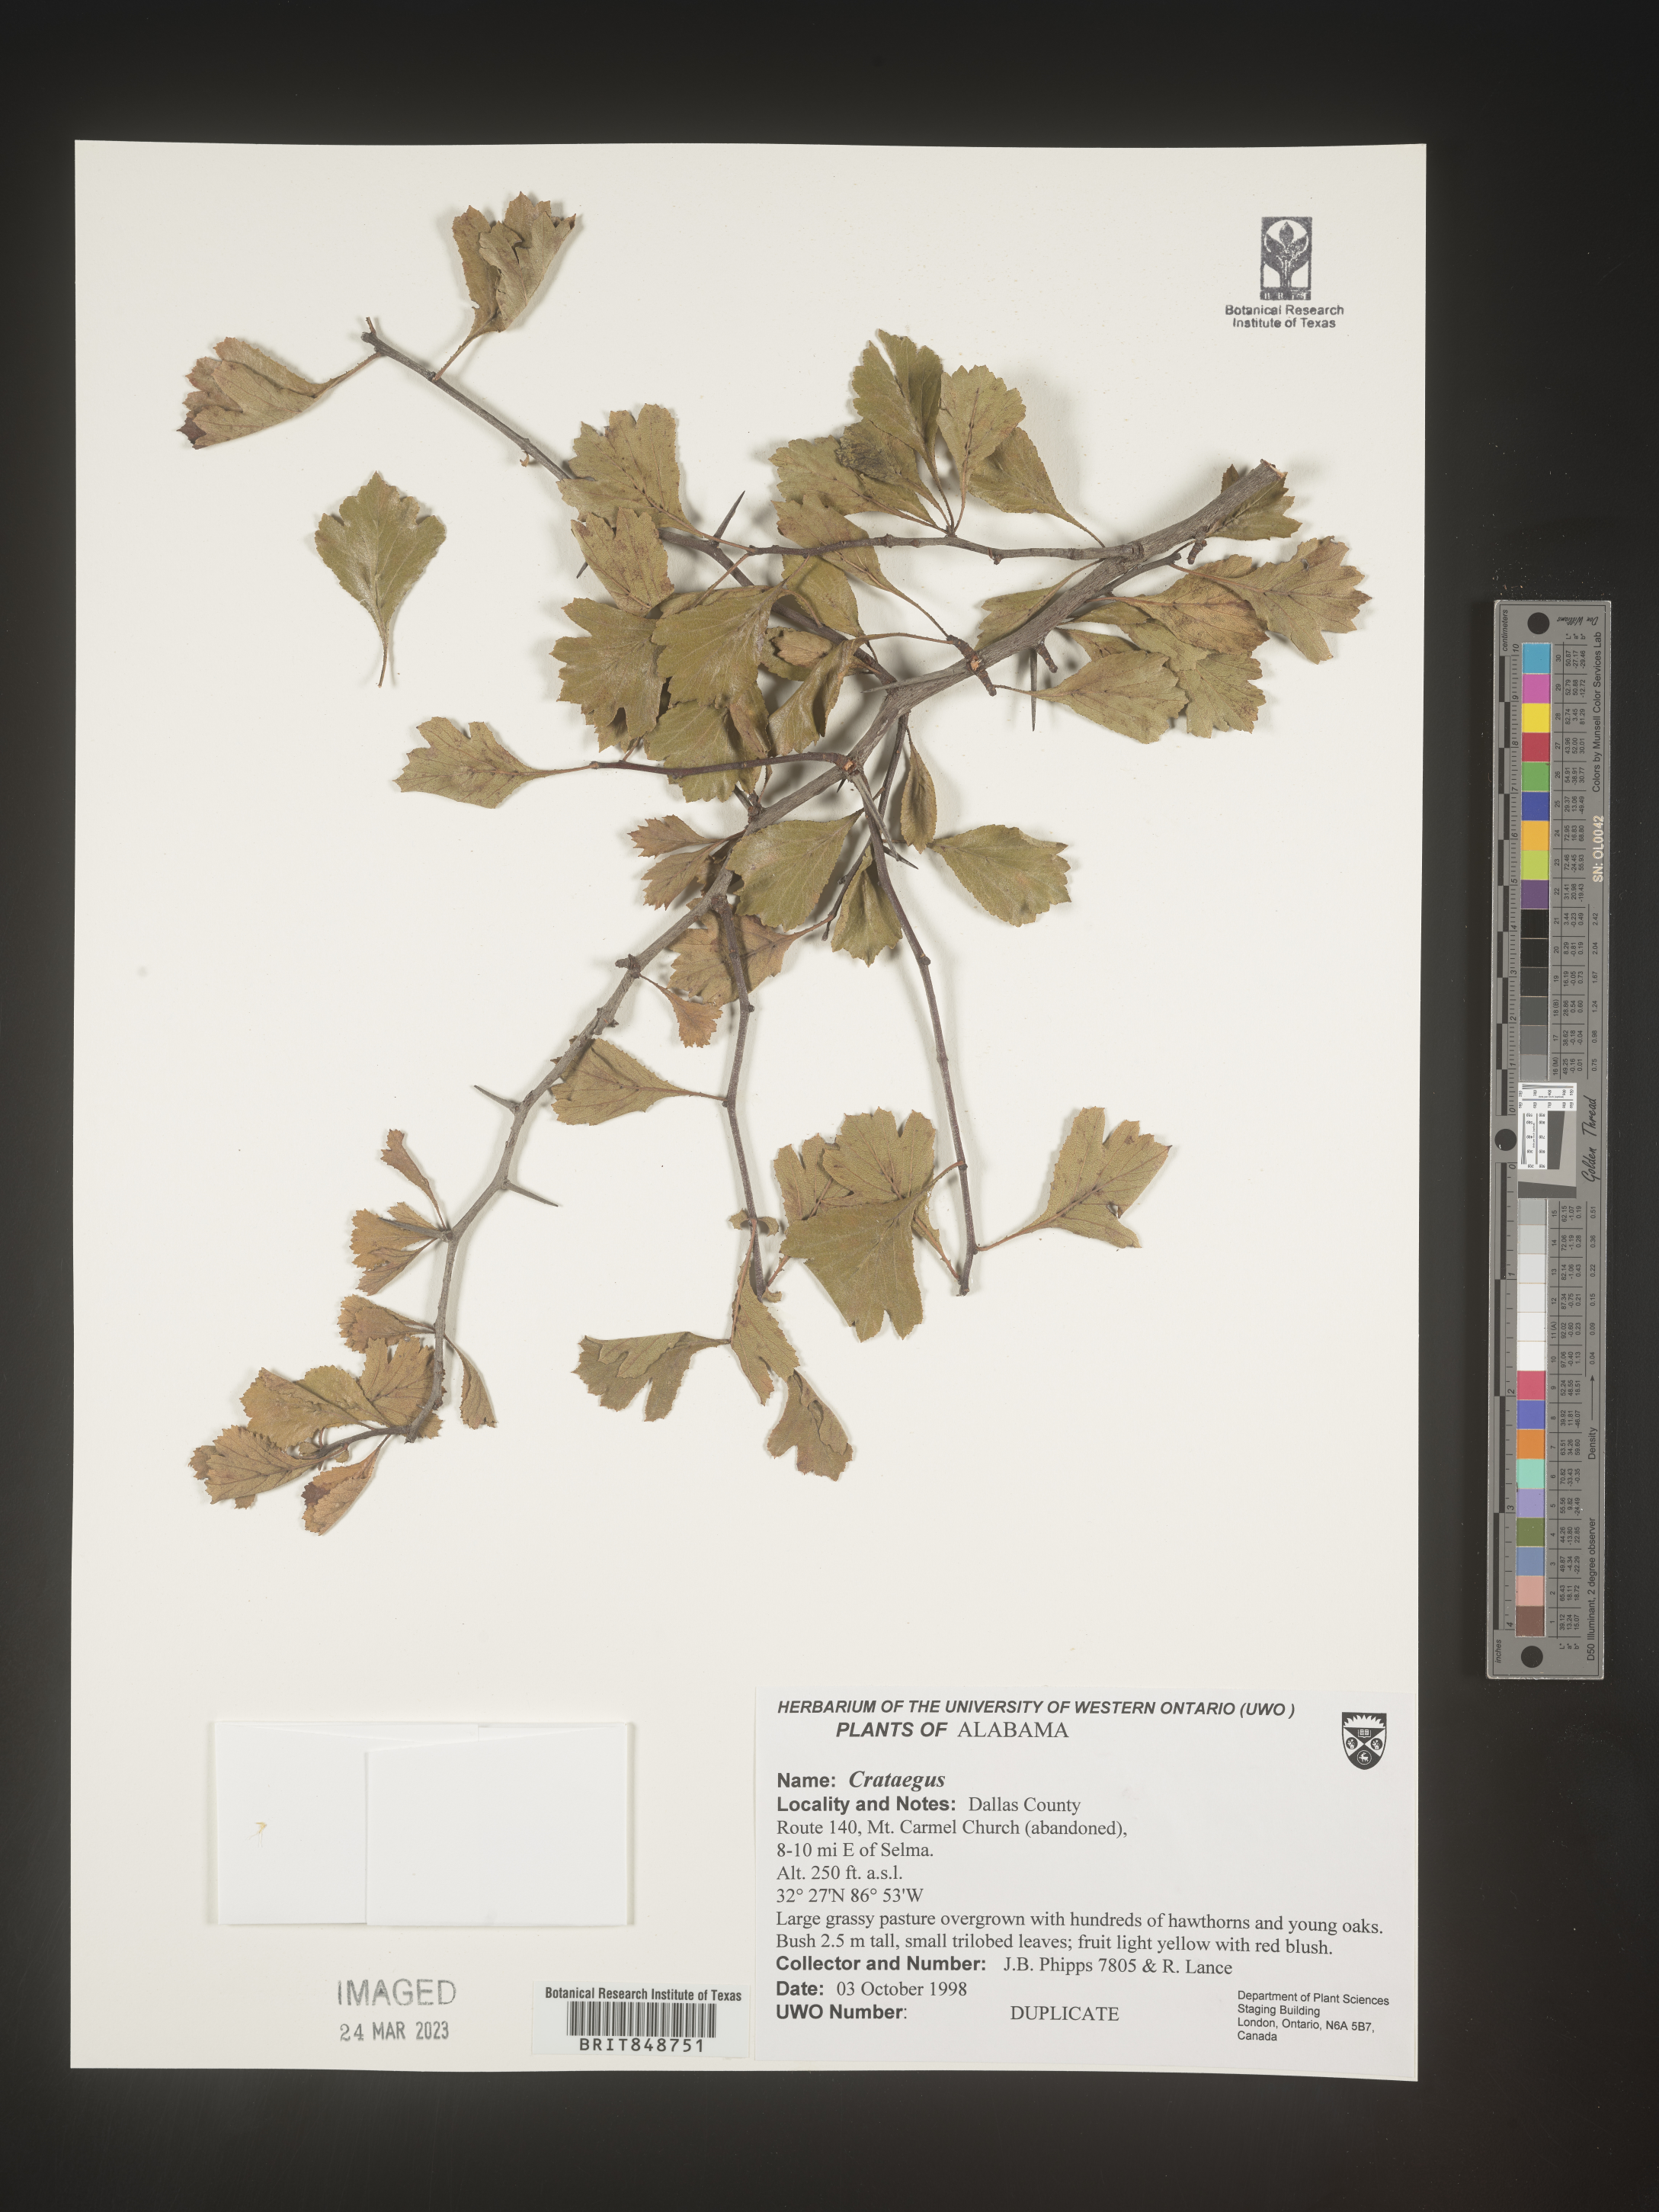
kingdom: Plantae
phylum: Tracheophyta
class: Magnoliopsida
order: Rosales
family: Rosaceae
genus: Crataegus
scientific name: Crataegus
